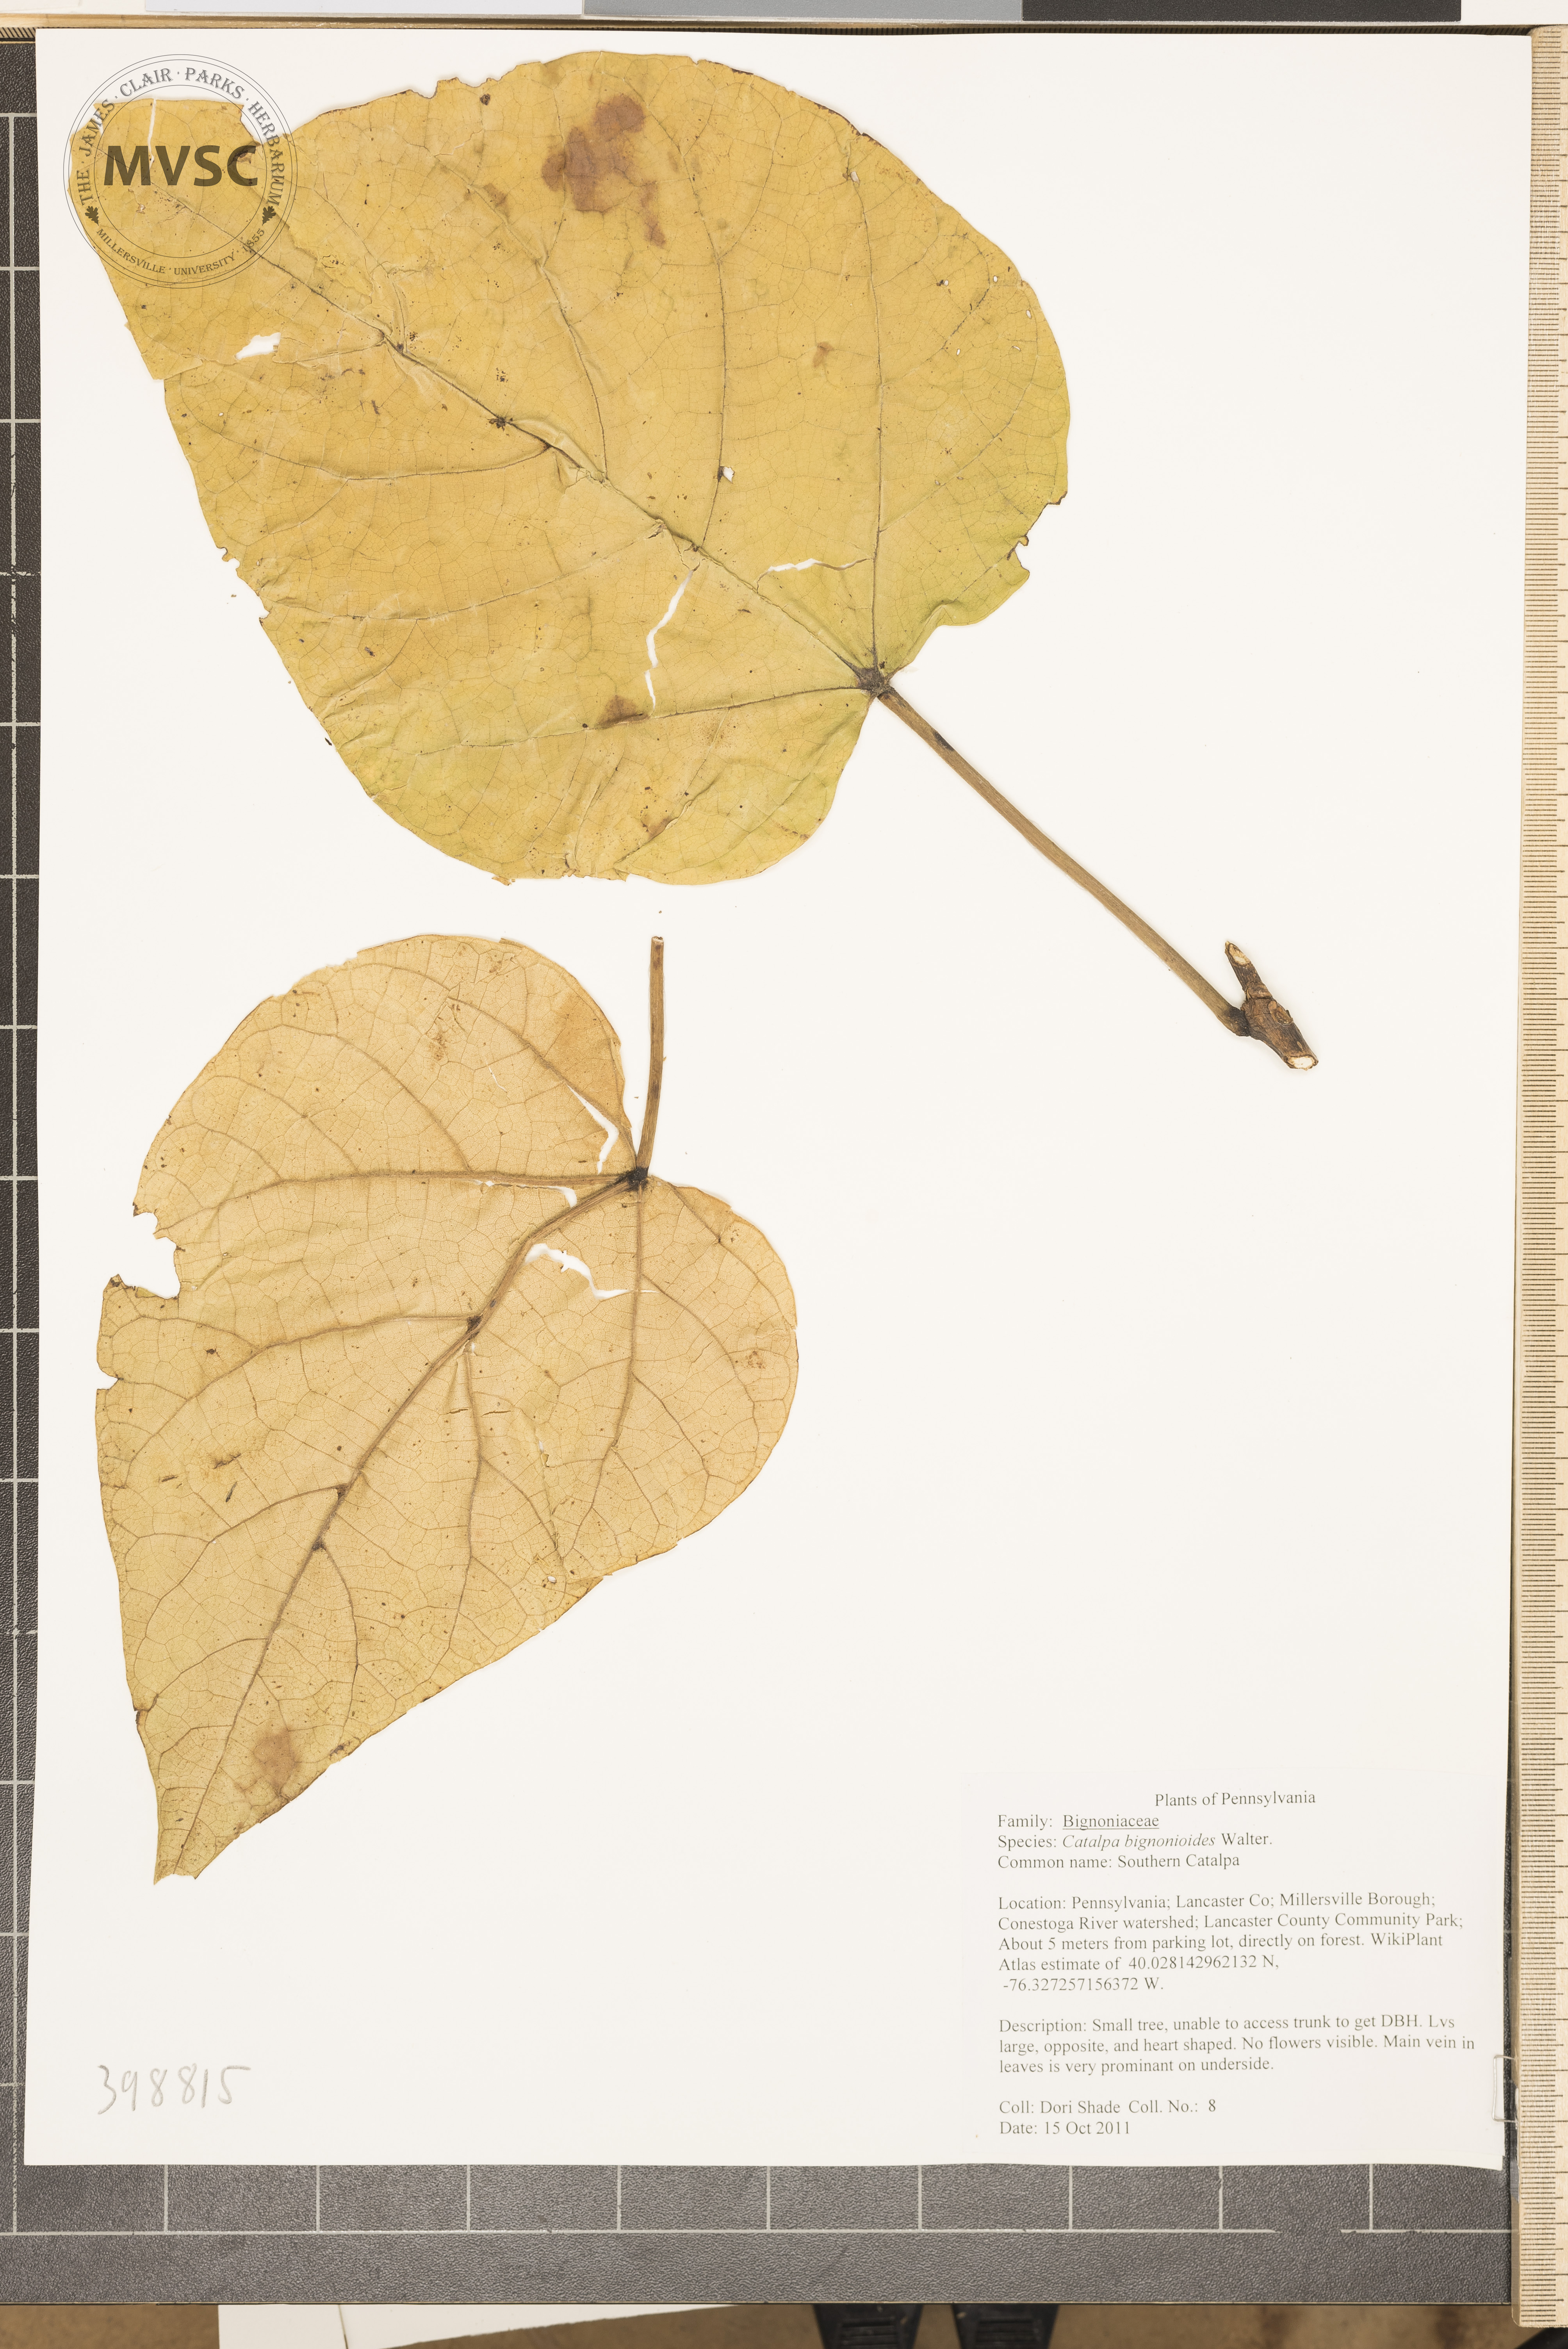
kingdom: Plantae
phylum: Tracheophyta
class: Magnoliopsida
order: Lamiales
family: Bignoniaceae
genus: Catalpa
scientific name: Catalpa bignonioides
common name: Catalpa
